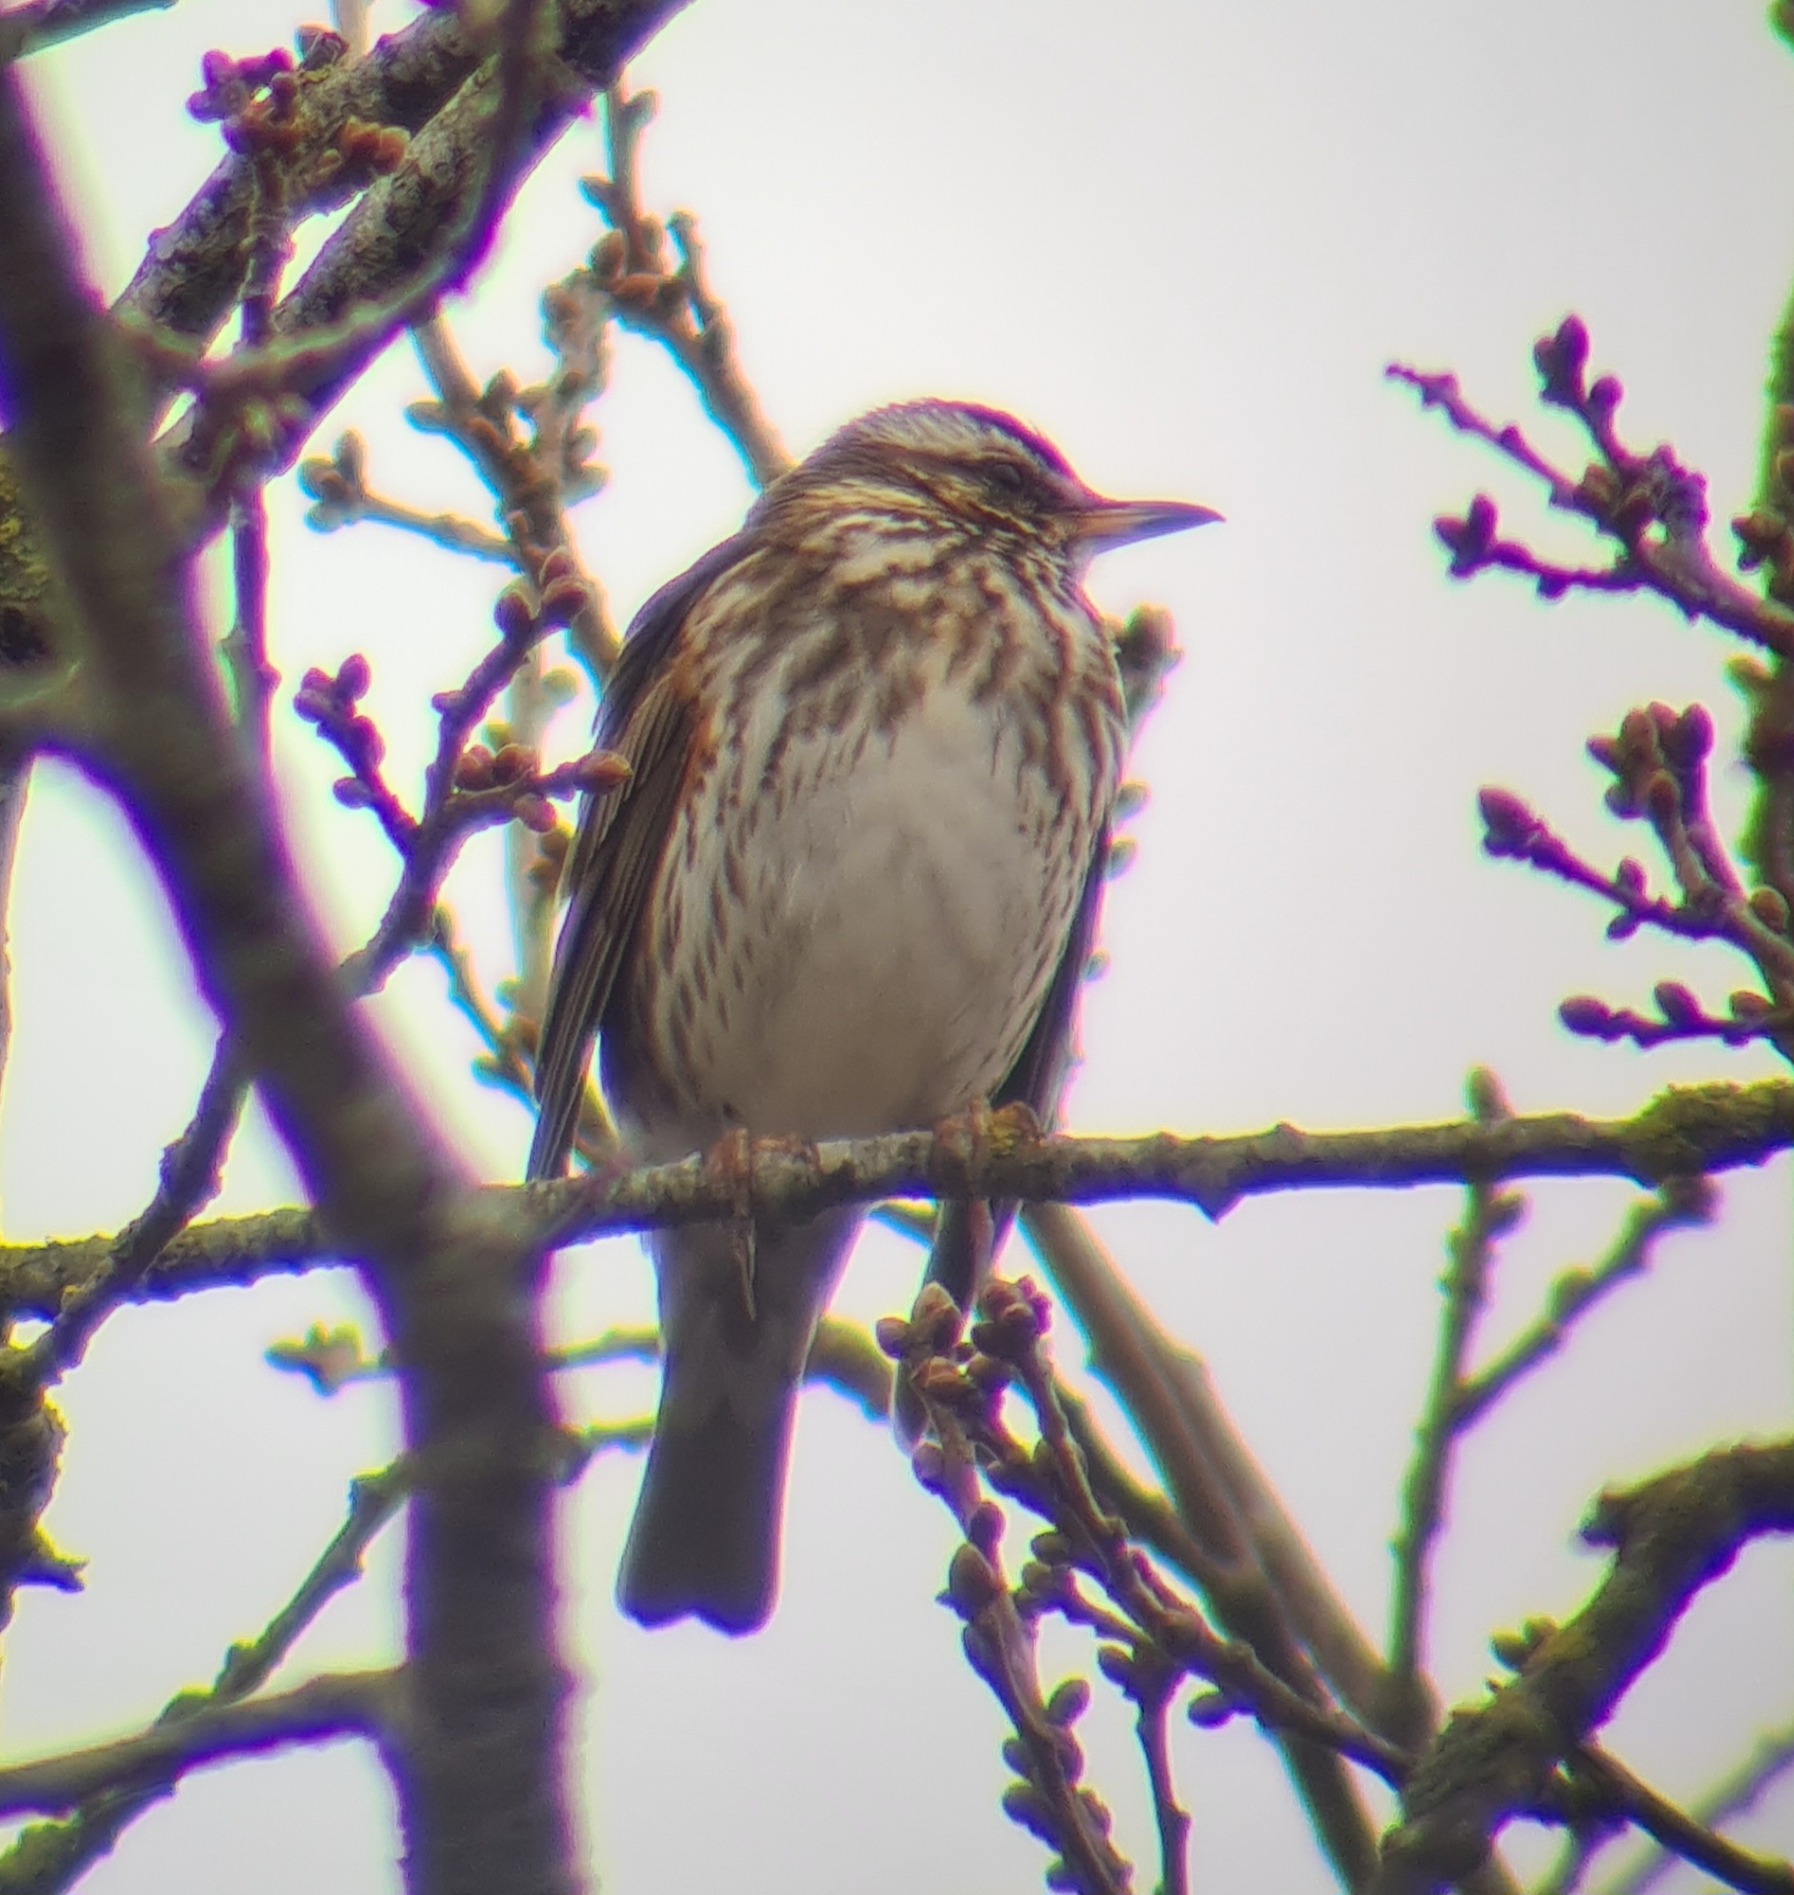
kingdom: Animalia
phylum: Chordata
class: Aves
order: Passeriformes
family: Turdidae
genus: Turdus
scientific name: Turdus iliacus
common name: Vindrossel
